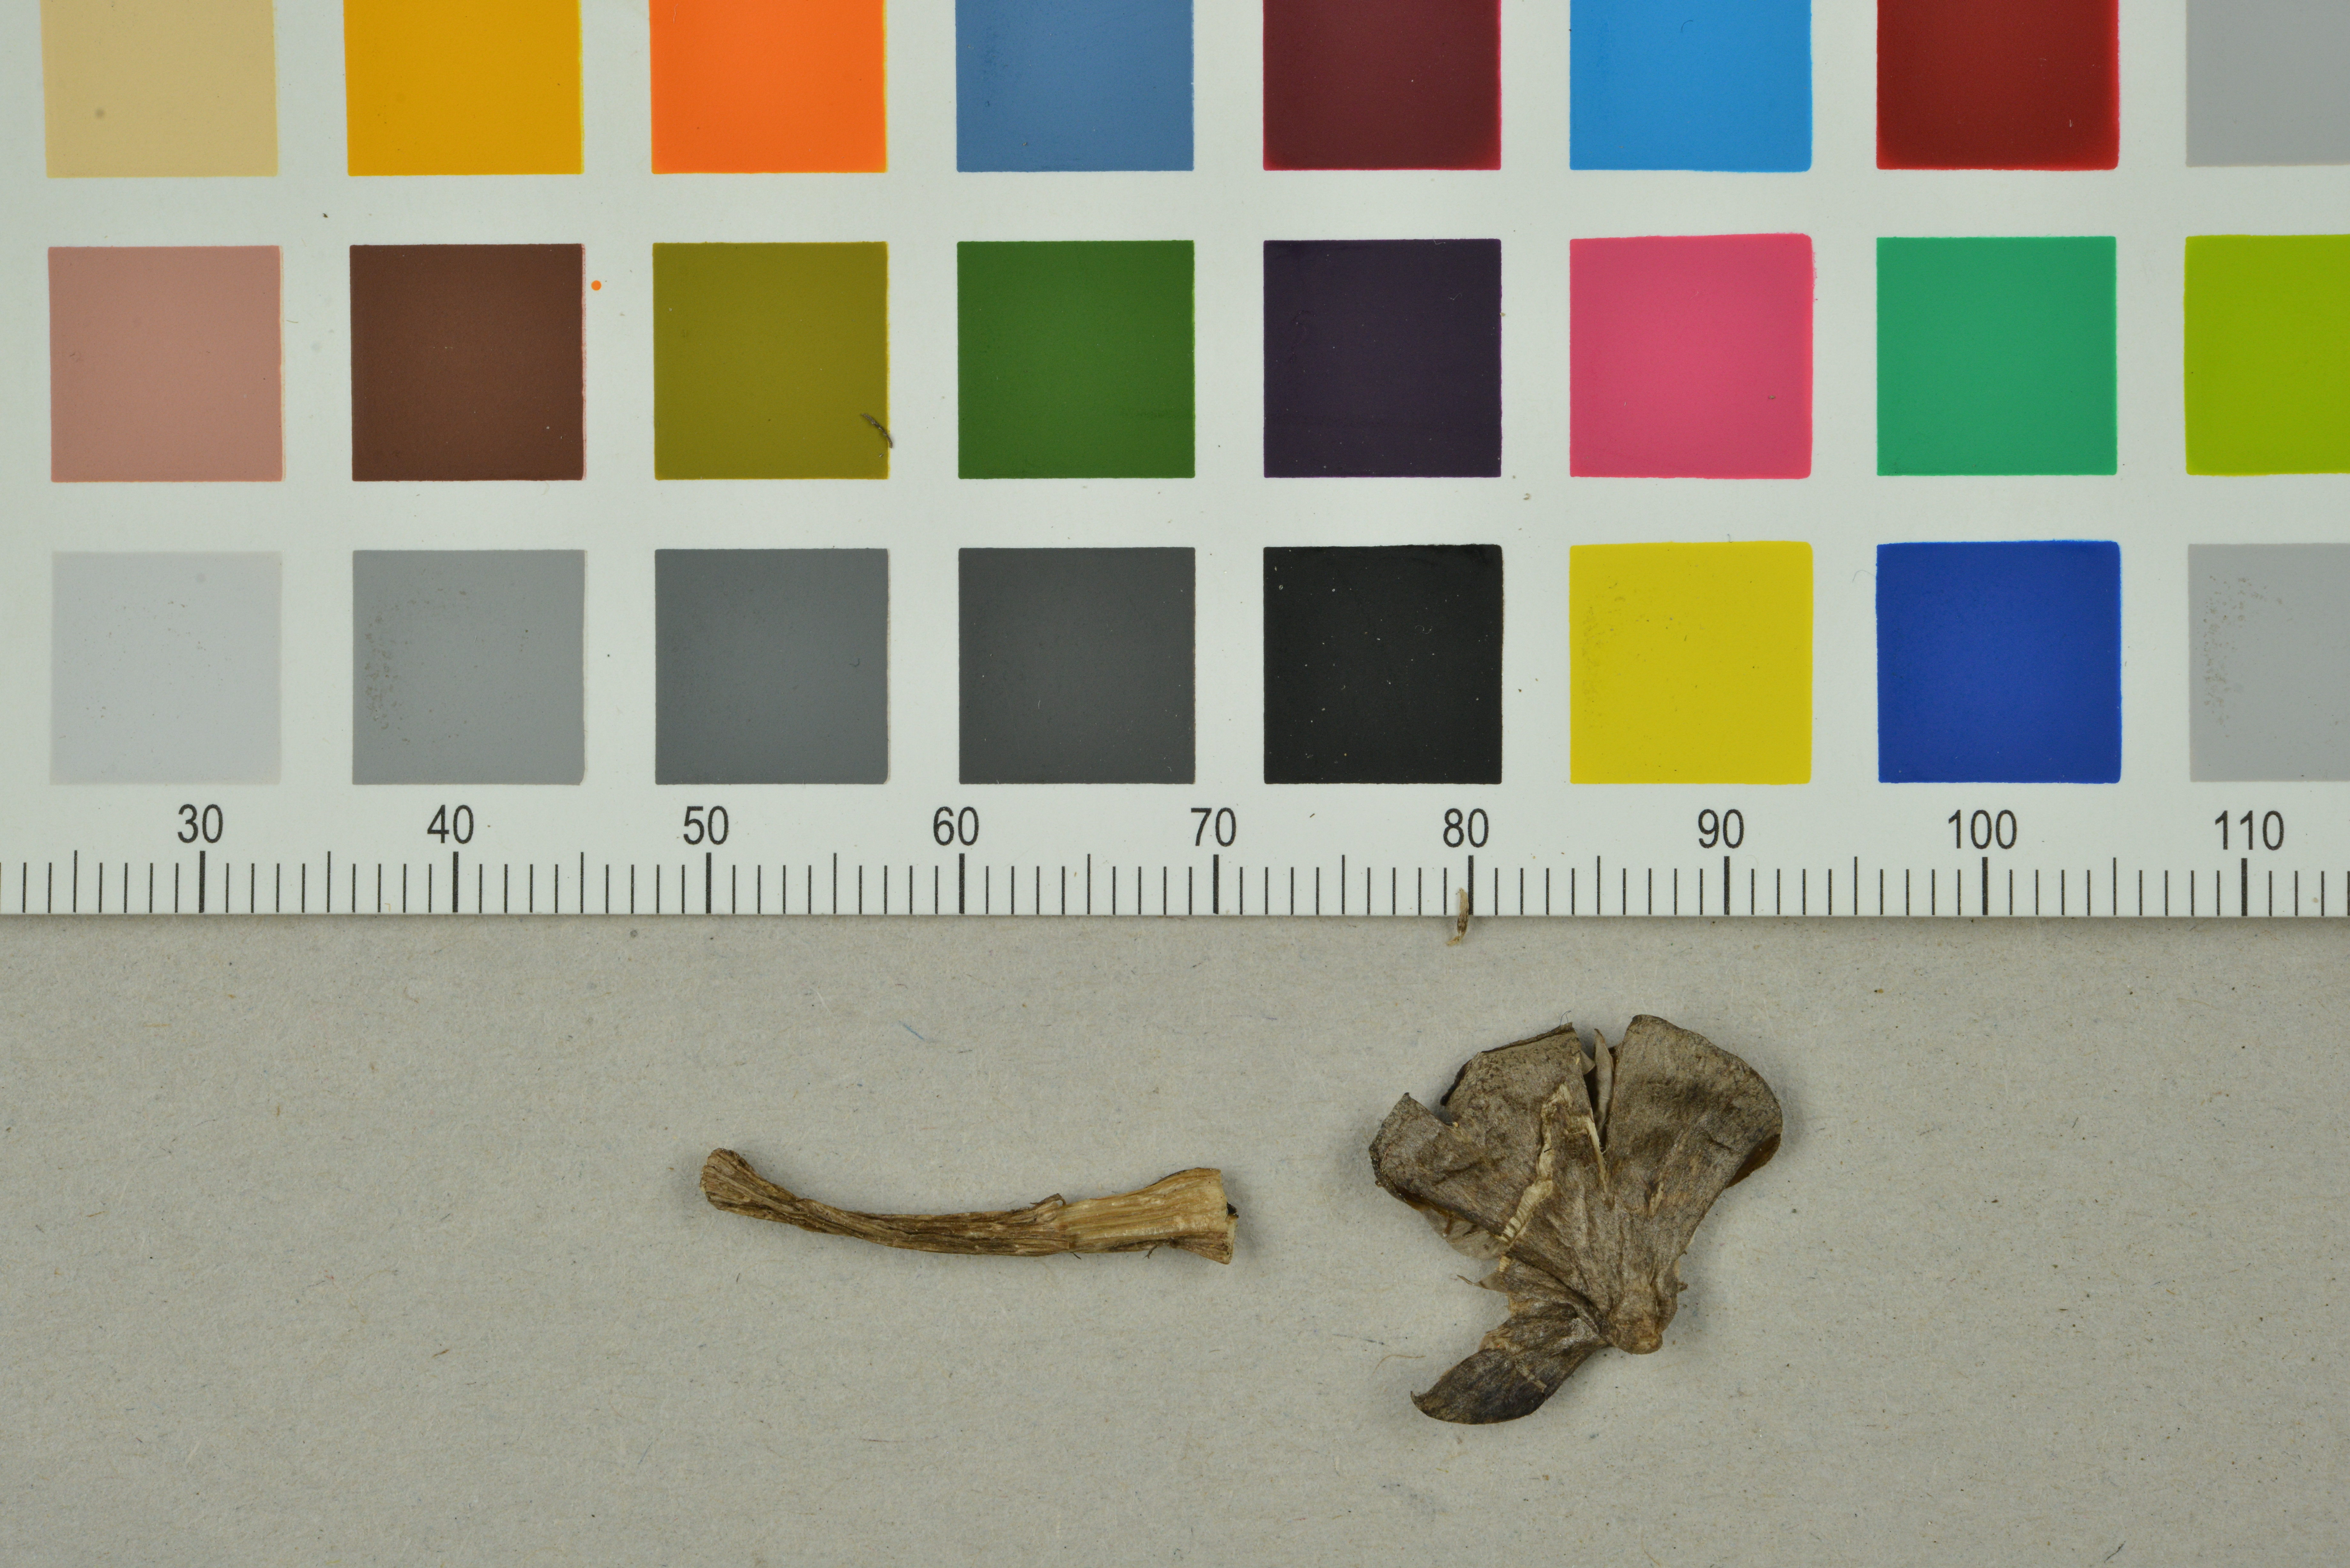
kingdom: Fungi
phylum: Basidiomycota
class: Agaricomycetes
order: Agaricales
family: Entolomataceae
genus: Entoloma
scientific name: Entoloma jubatum
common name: Sepia pinkgill
